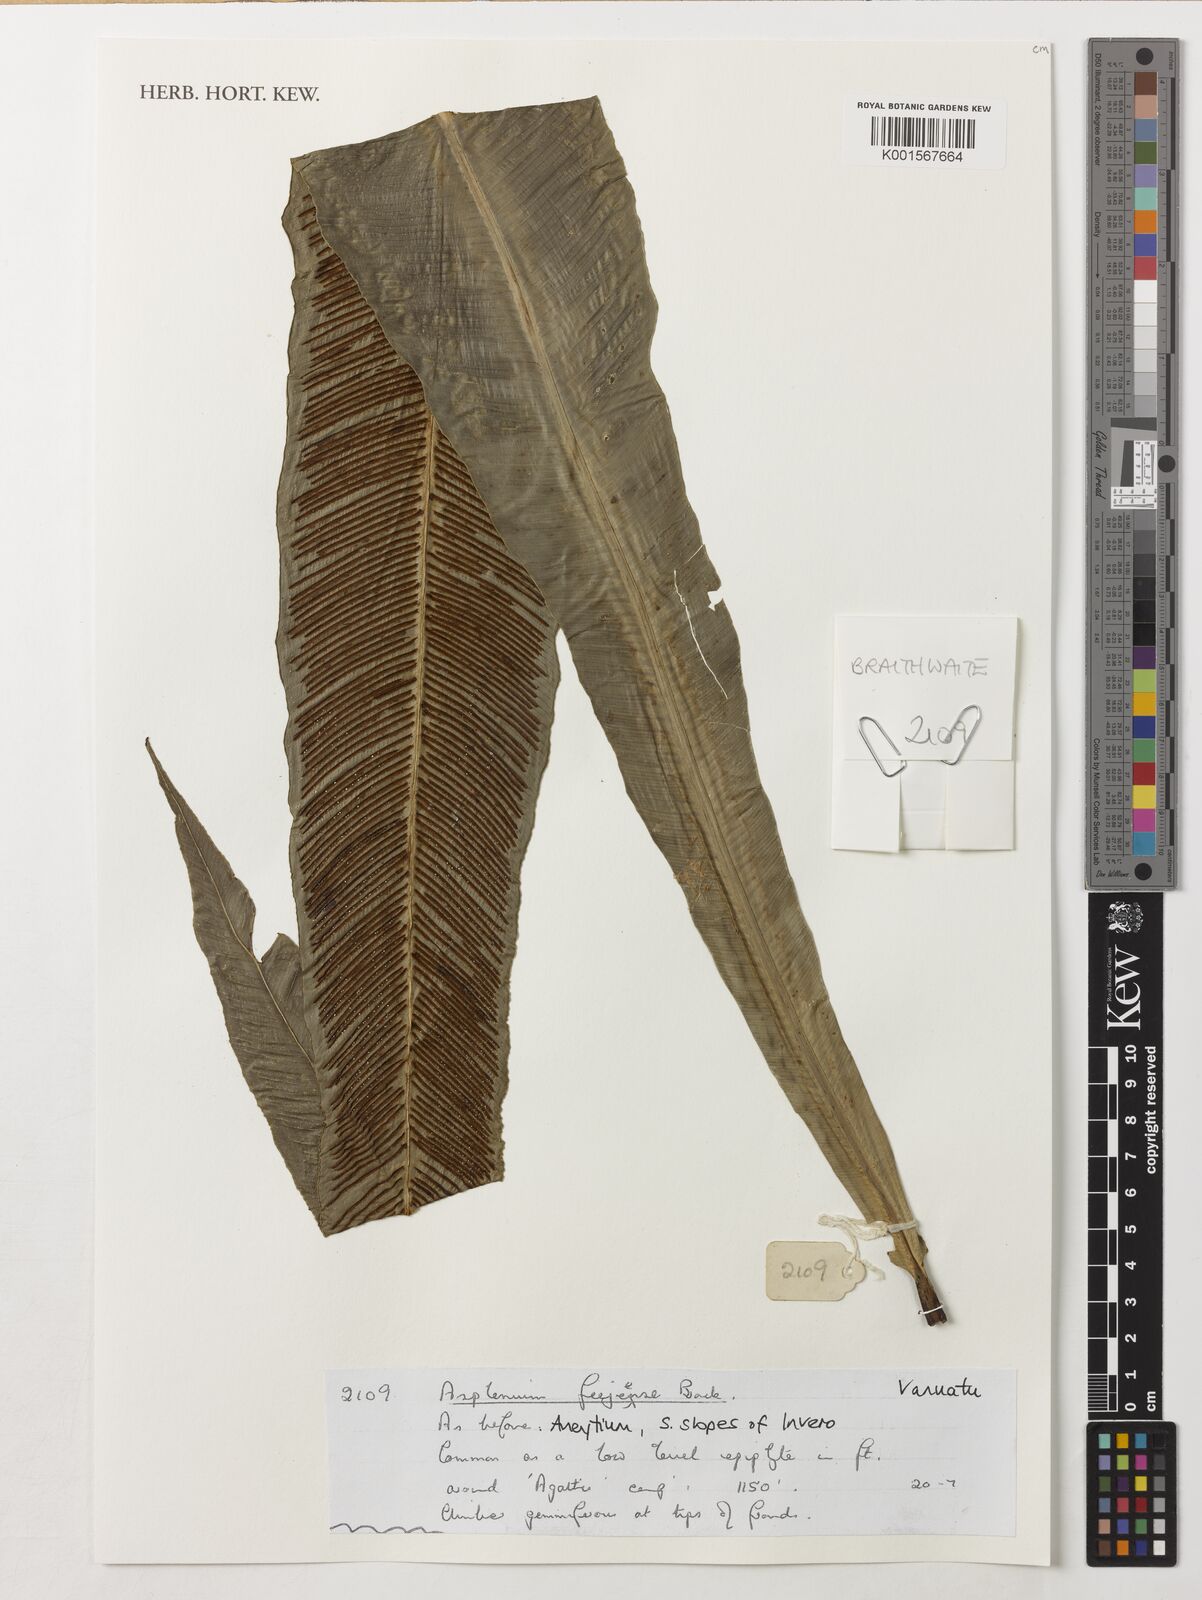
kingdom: Plantae
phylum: Tracheophyta
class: Polypodiopsida
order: Polypodiales
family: Aspleniaceae
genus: Asplenium
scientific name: Asplenium amboinense
